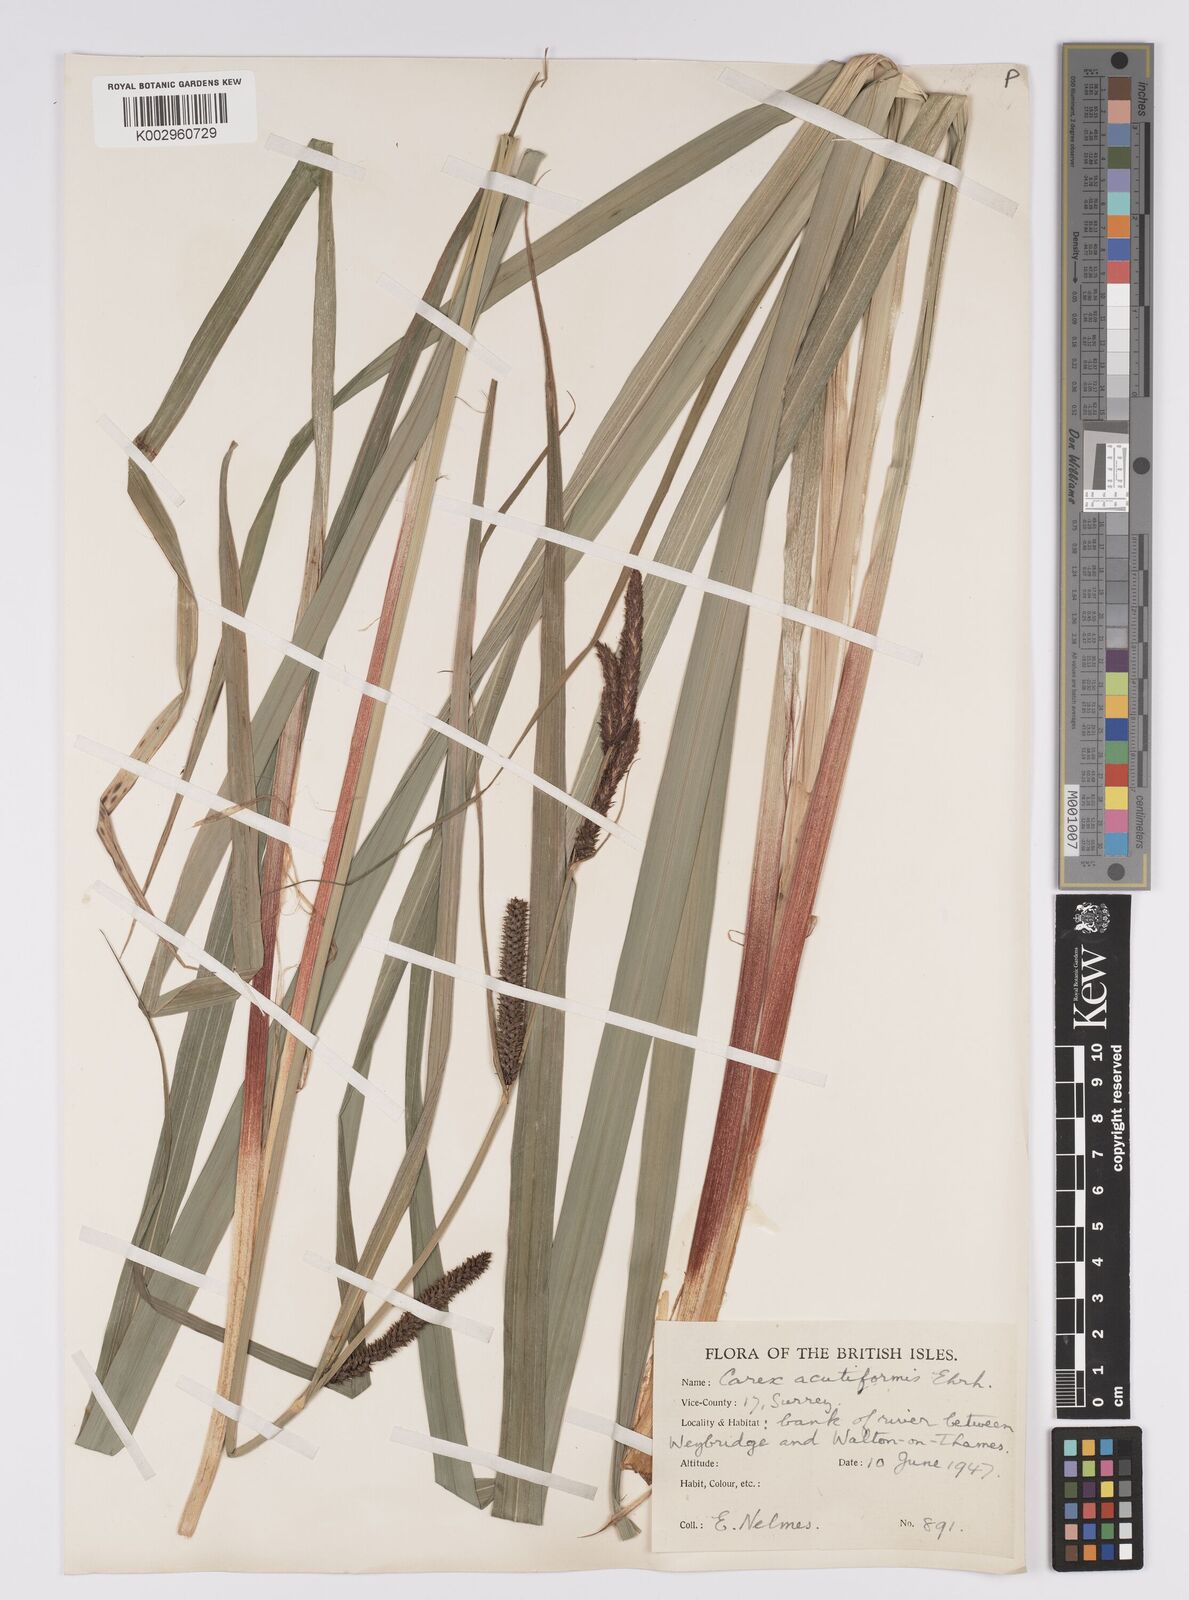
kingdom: Plantae
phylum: Tracheophyta
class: Liliopsida
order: Poales
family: Cyperaceae
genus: Carex
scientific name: Carex acutiformis
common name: Lesser pond-sedge
